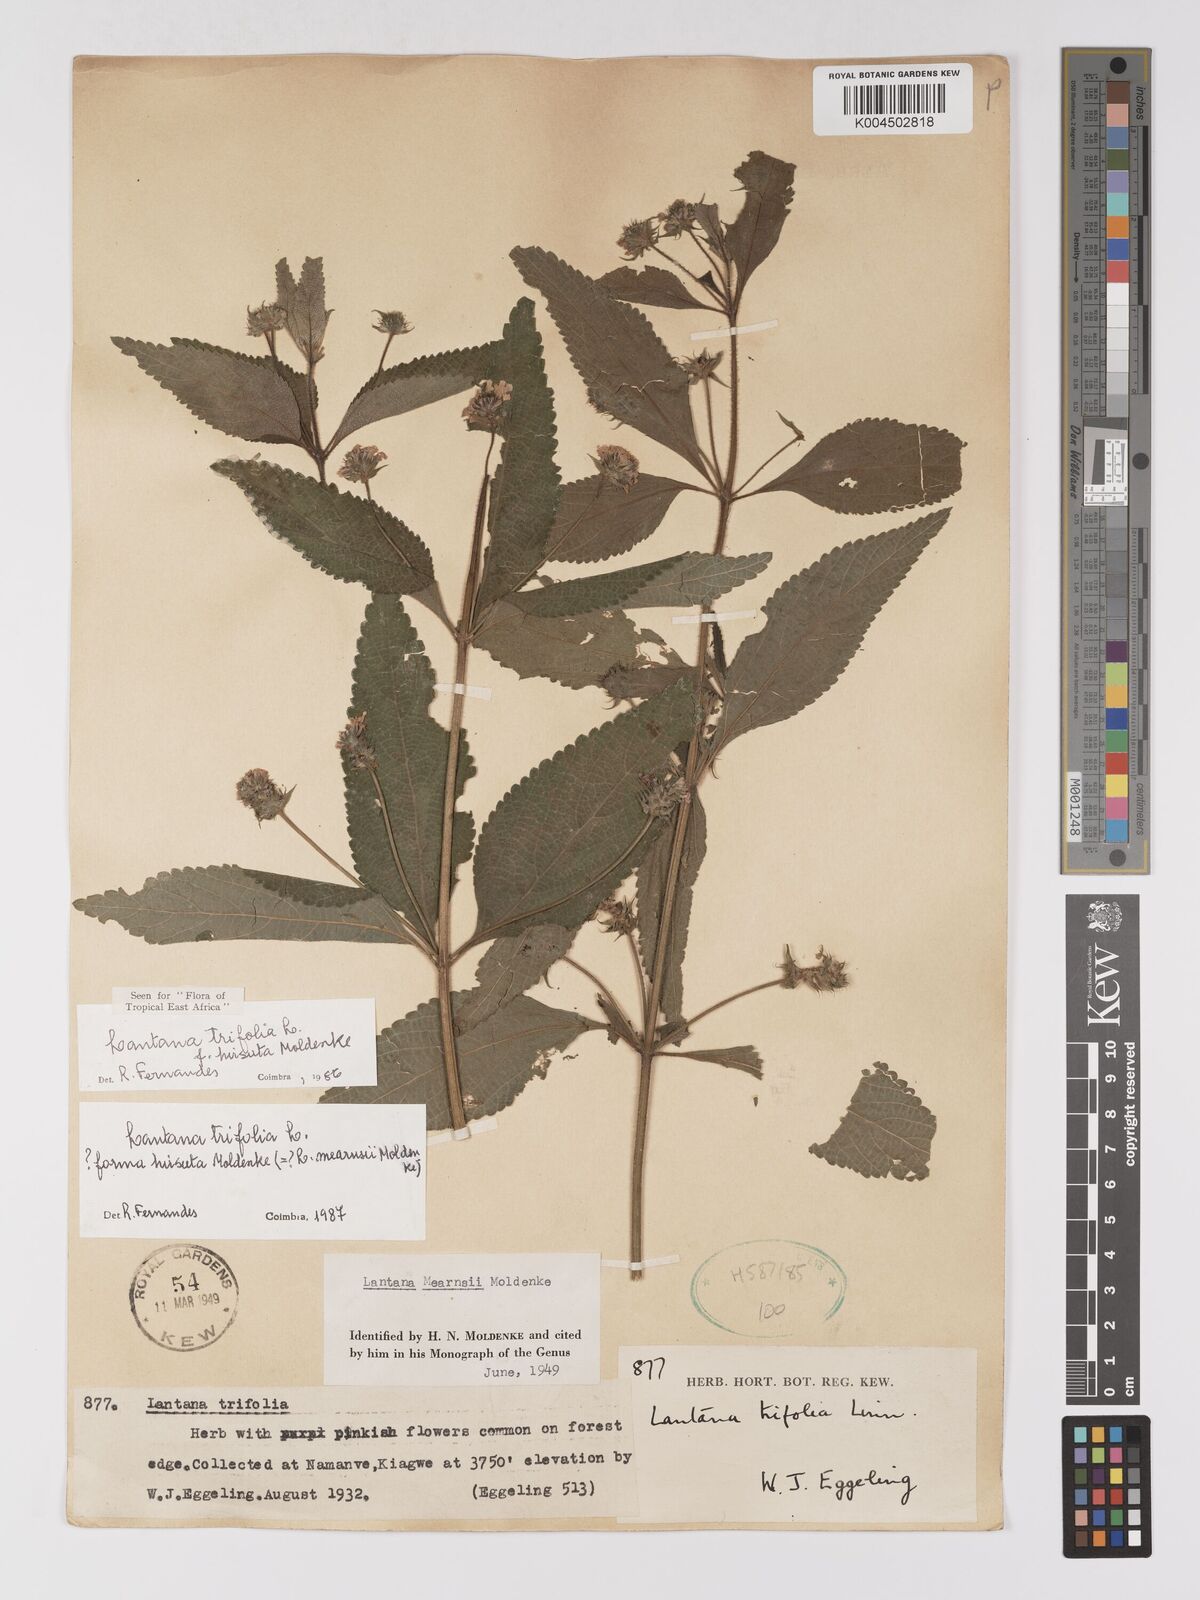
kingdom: Plantae
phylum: Tracheophyta
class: Magnoliopsida
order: Lamiales
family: Verbenaceae
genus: Lantana
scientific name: Lantana trifolia
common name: Sweet-sage
